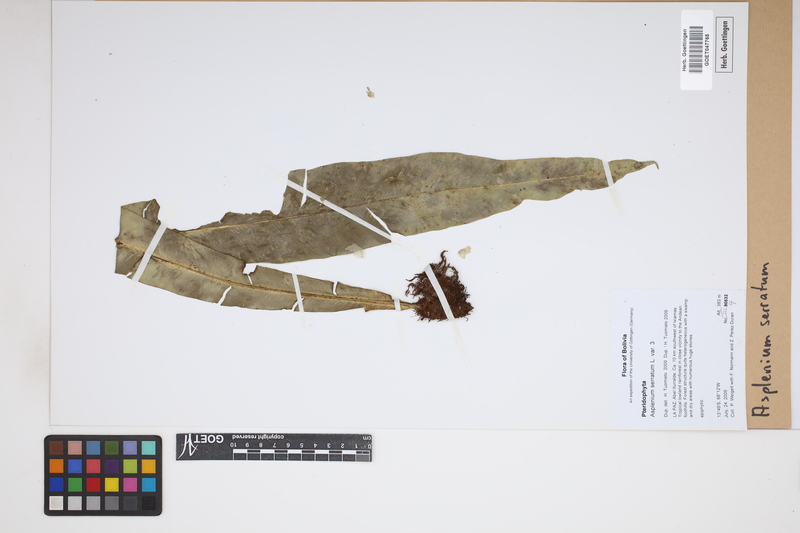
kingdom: Plantae
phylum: Tracheophyta
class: Polypodiopsida
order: Polypodiales
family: Aspleniaceae
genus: Asplenium
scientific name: Asplenium serratum
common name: Wild birdnest fern
